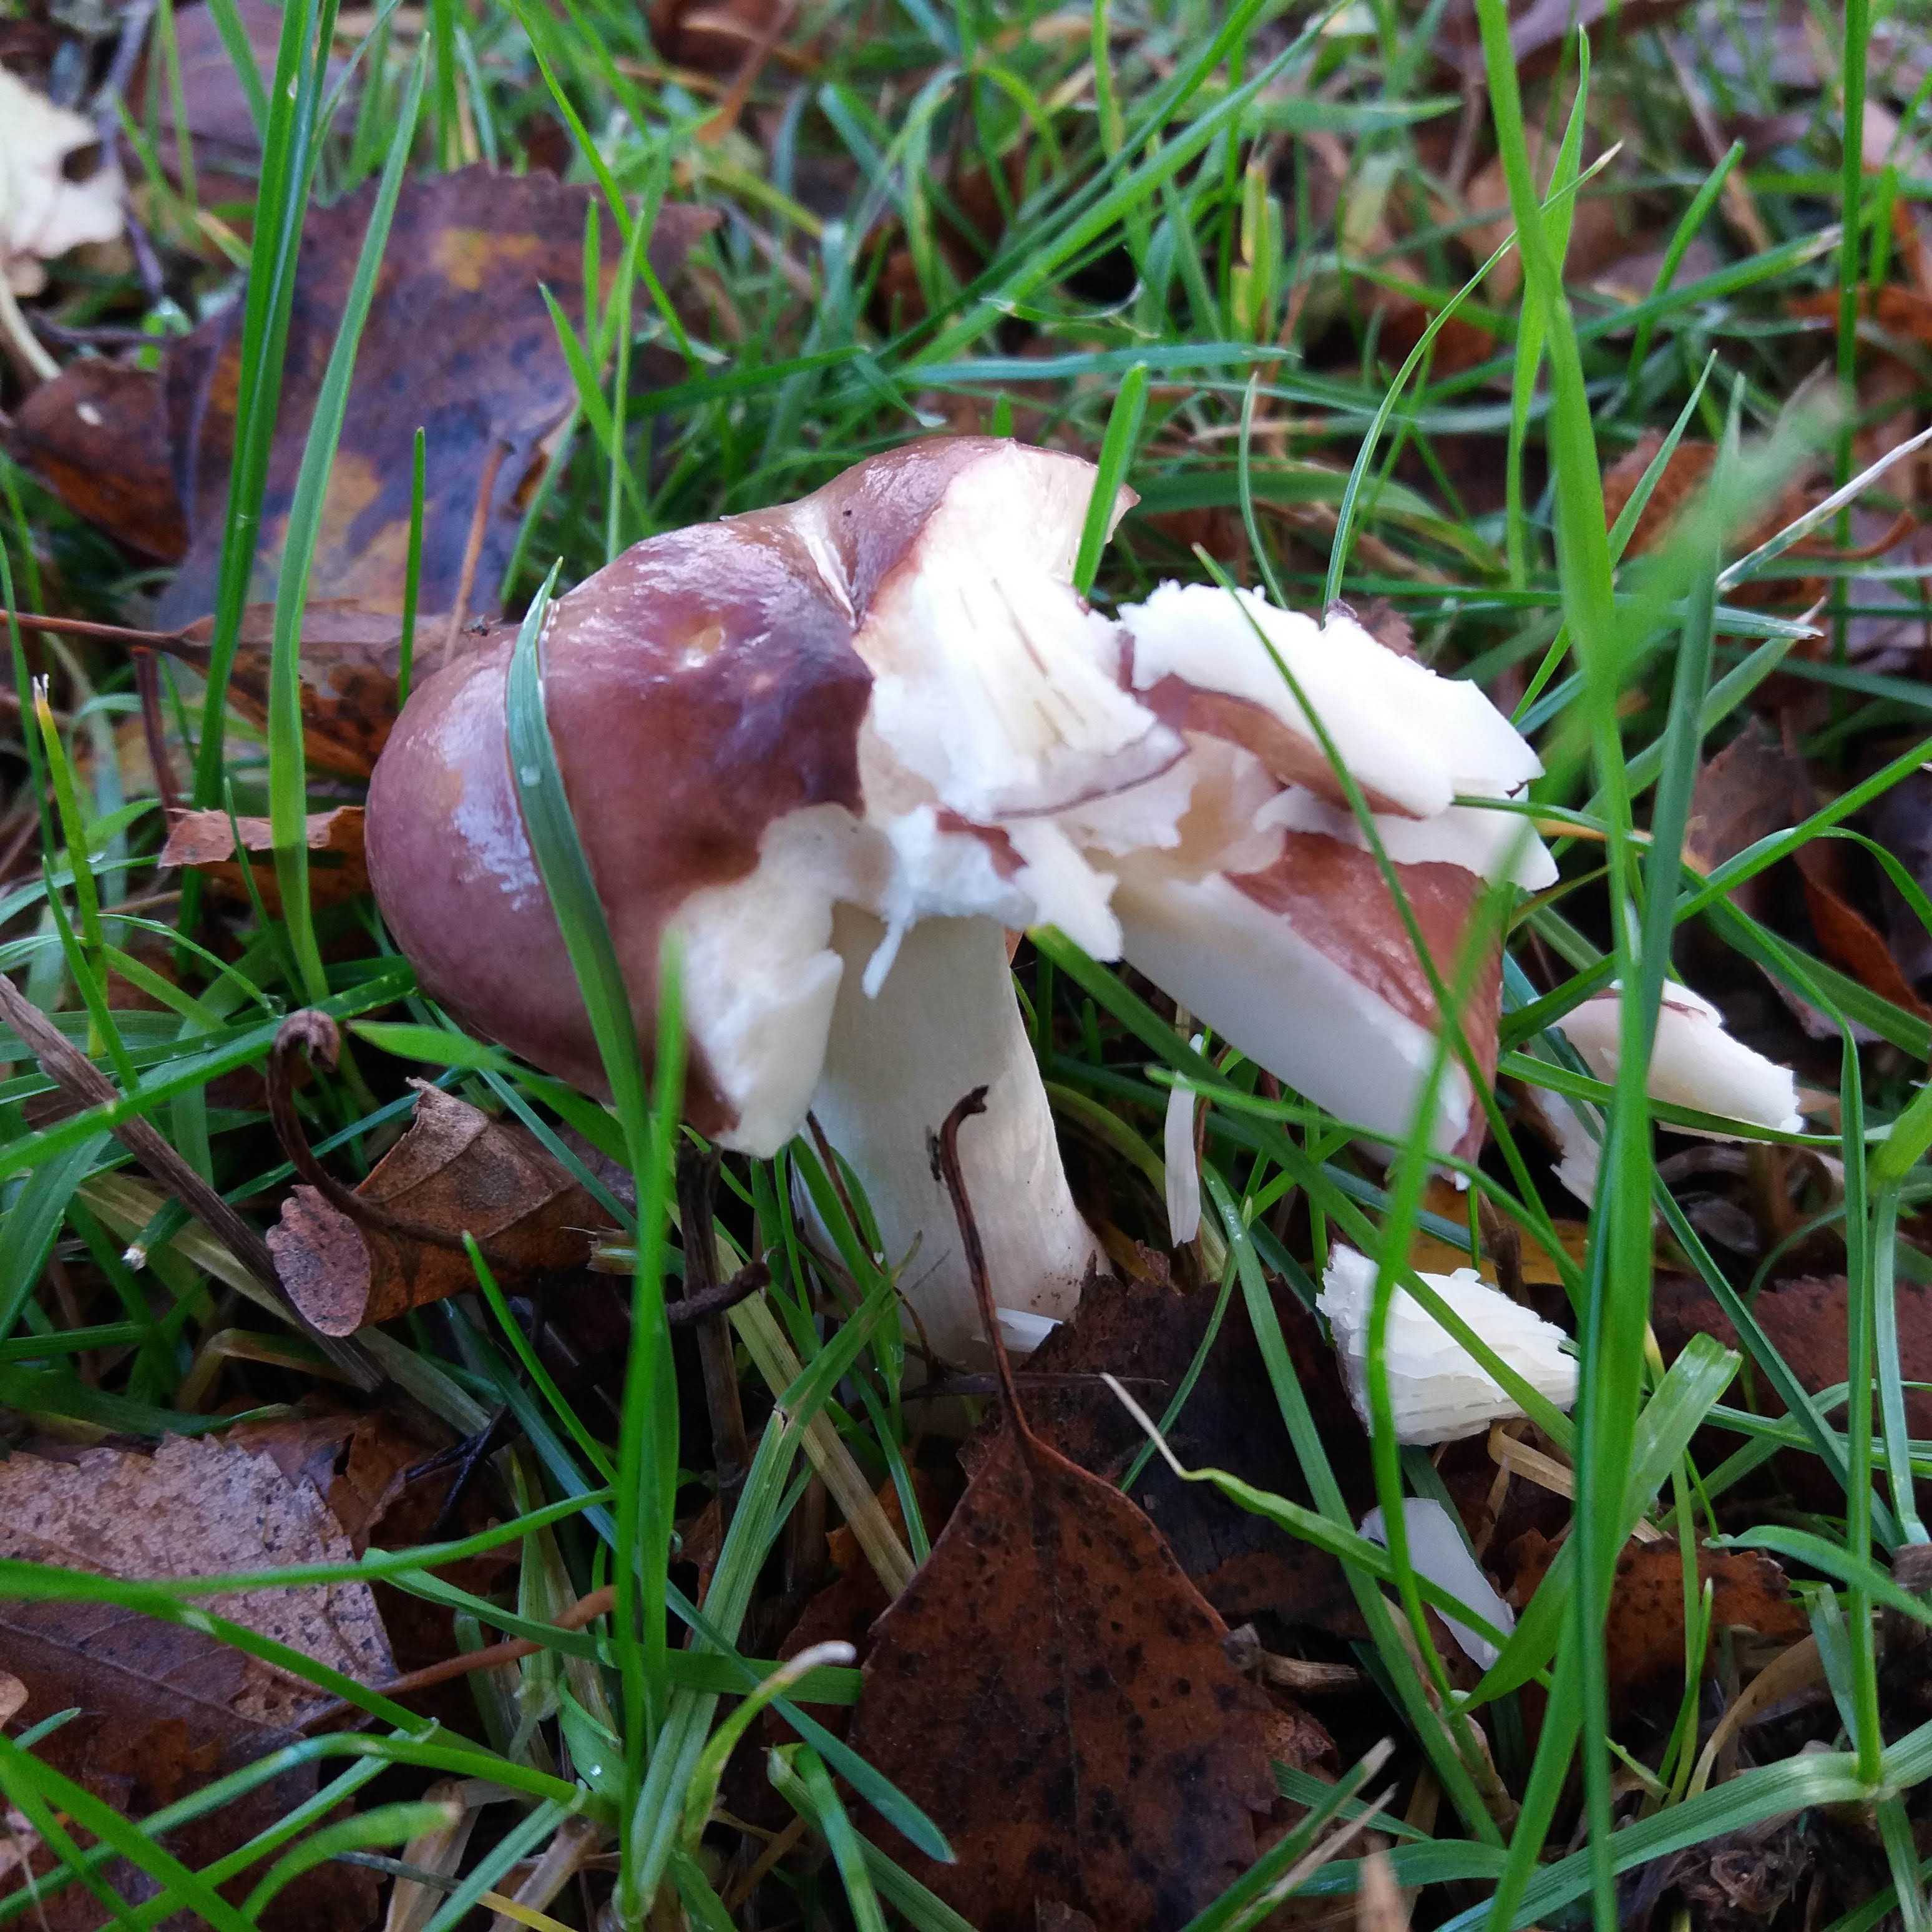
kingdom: Fungi
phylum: Basidiomycota
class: Agaricomycetes
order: Russulales
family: Russulaceae
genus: Russula
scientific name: Russula
